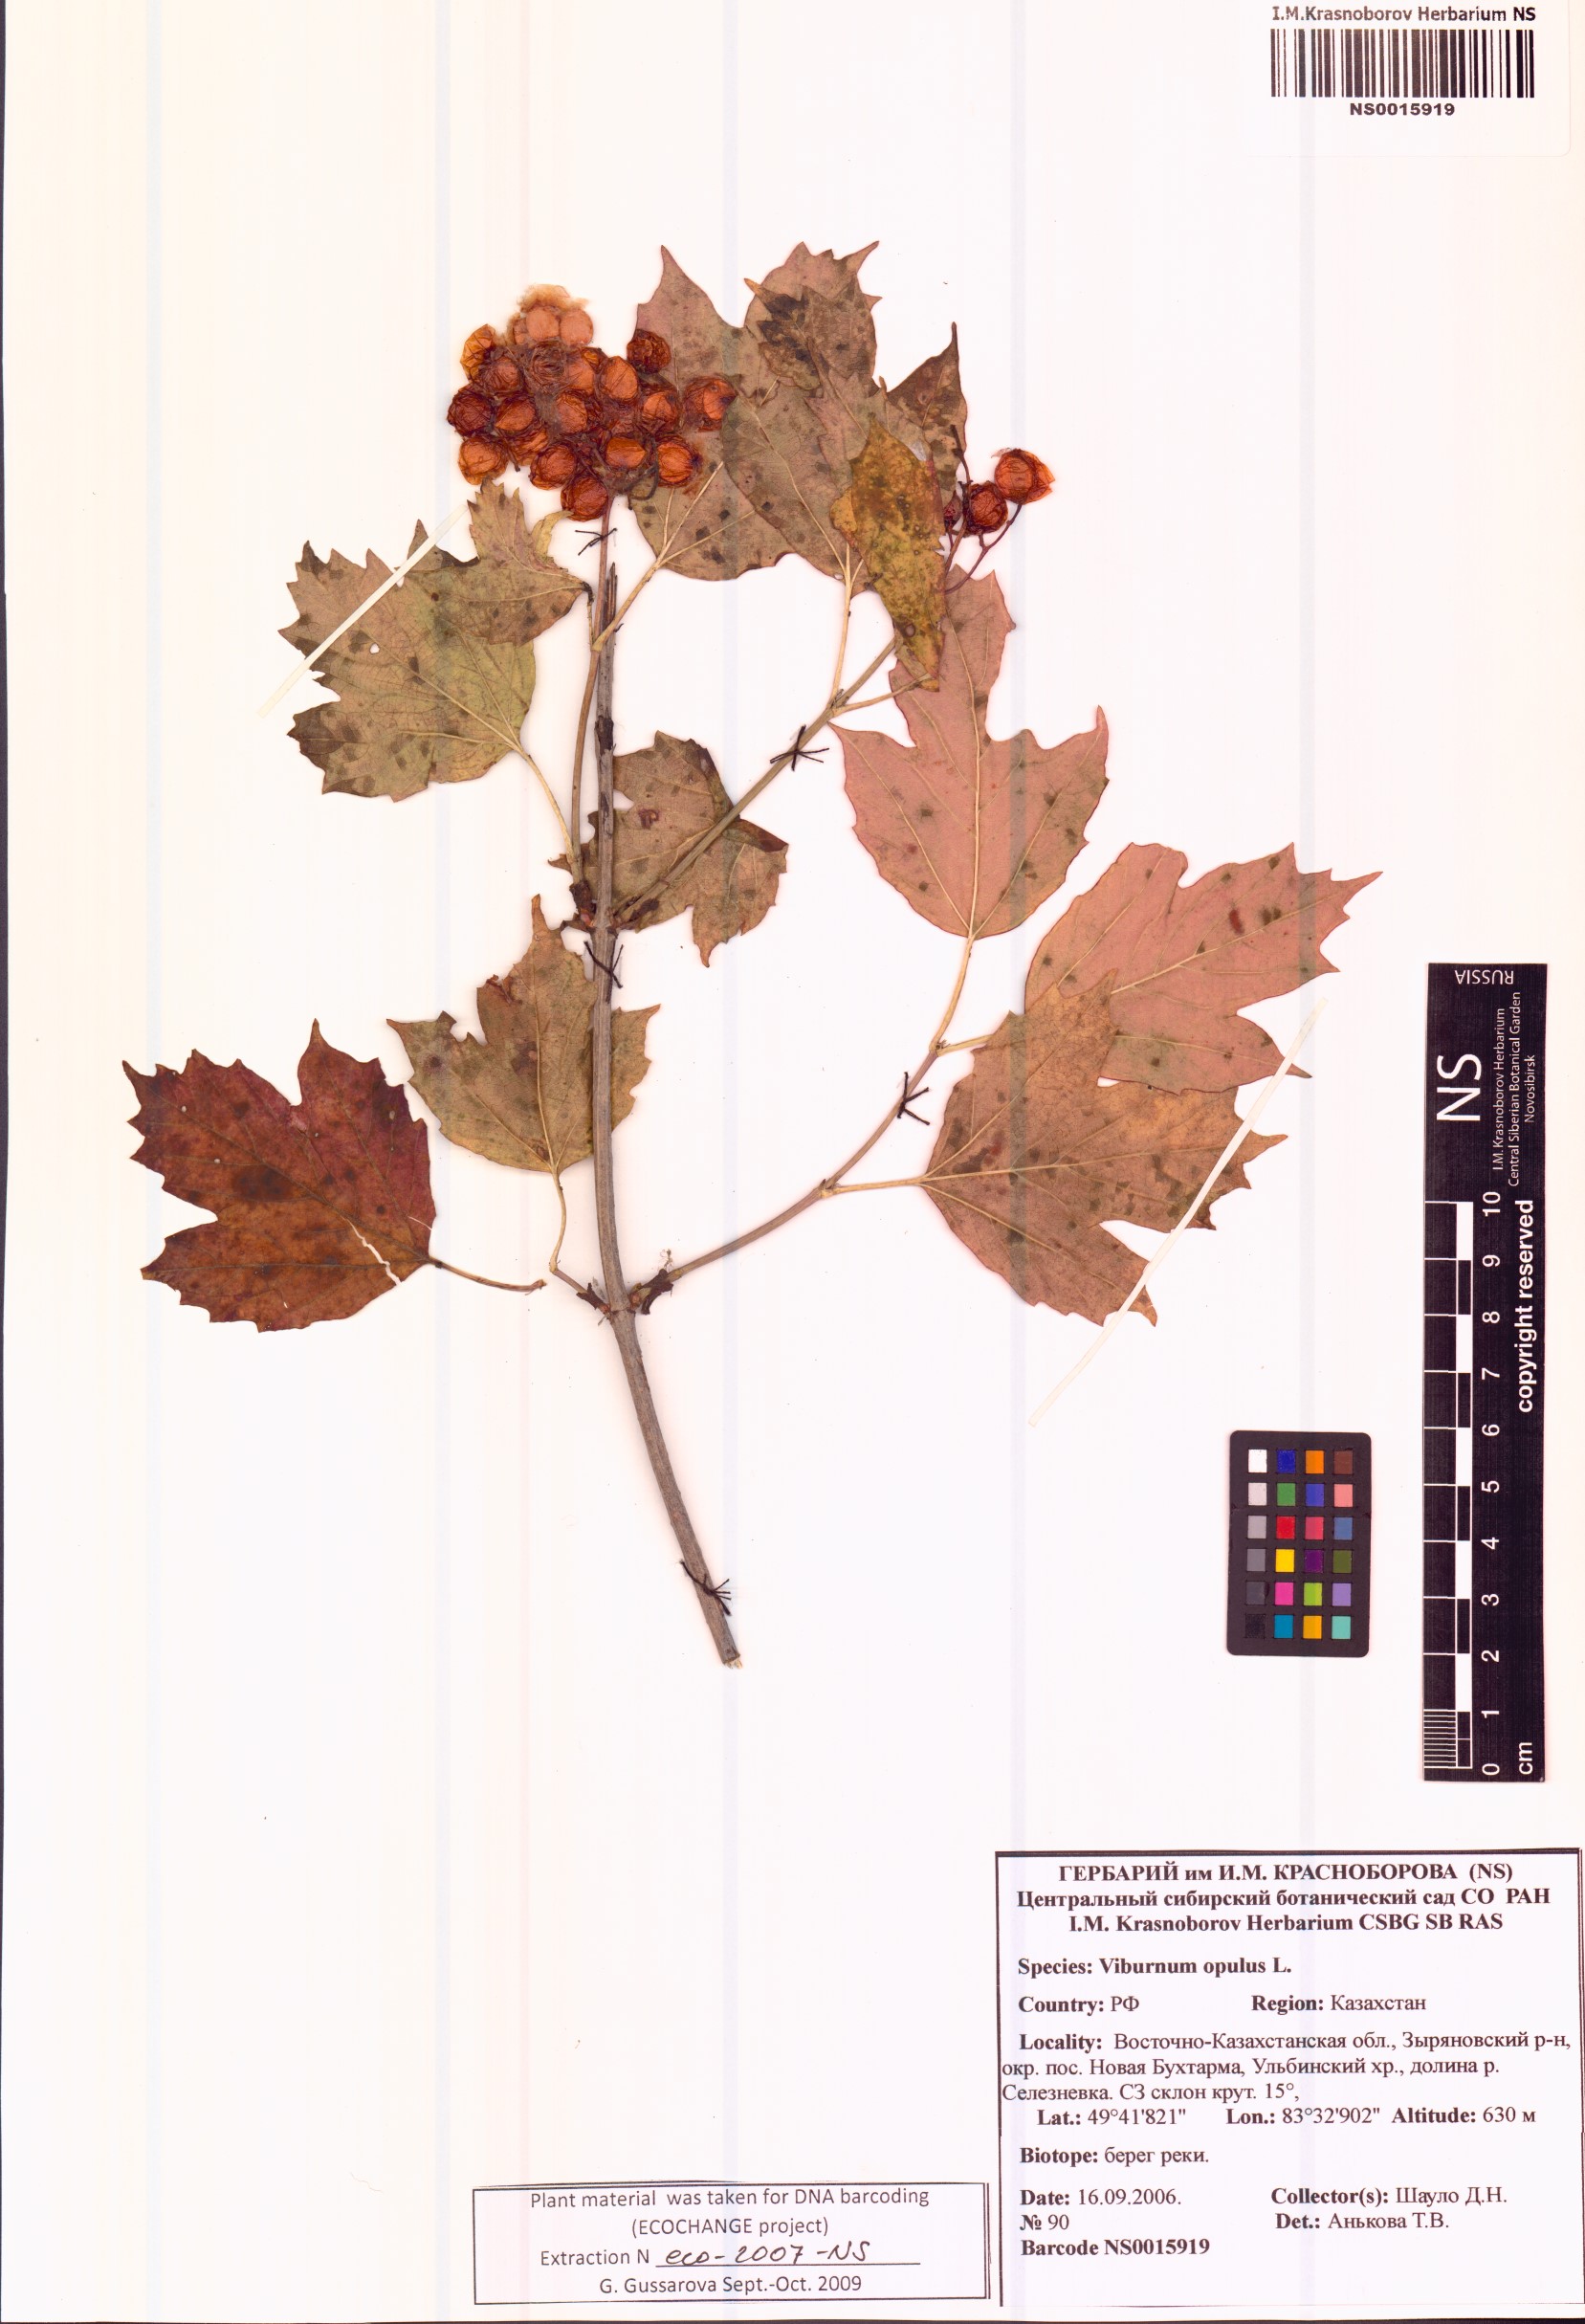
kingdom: Plantae
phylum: Tracheophyta
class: Magnoliopsida
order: Dipsacales
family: Viburnaceae
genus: Viburnum
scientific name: Viburnum opulus
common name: Guelder-rose
